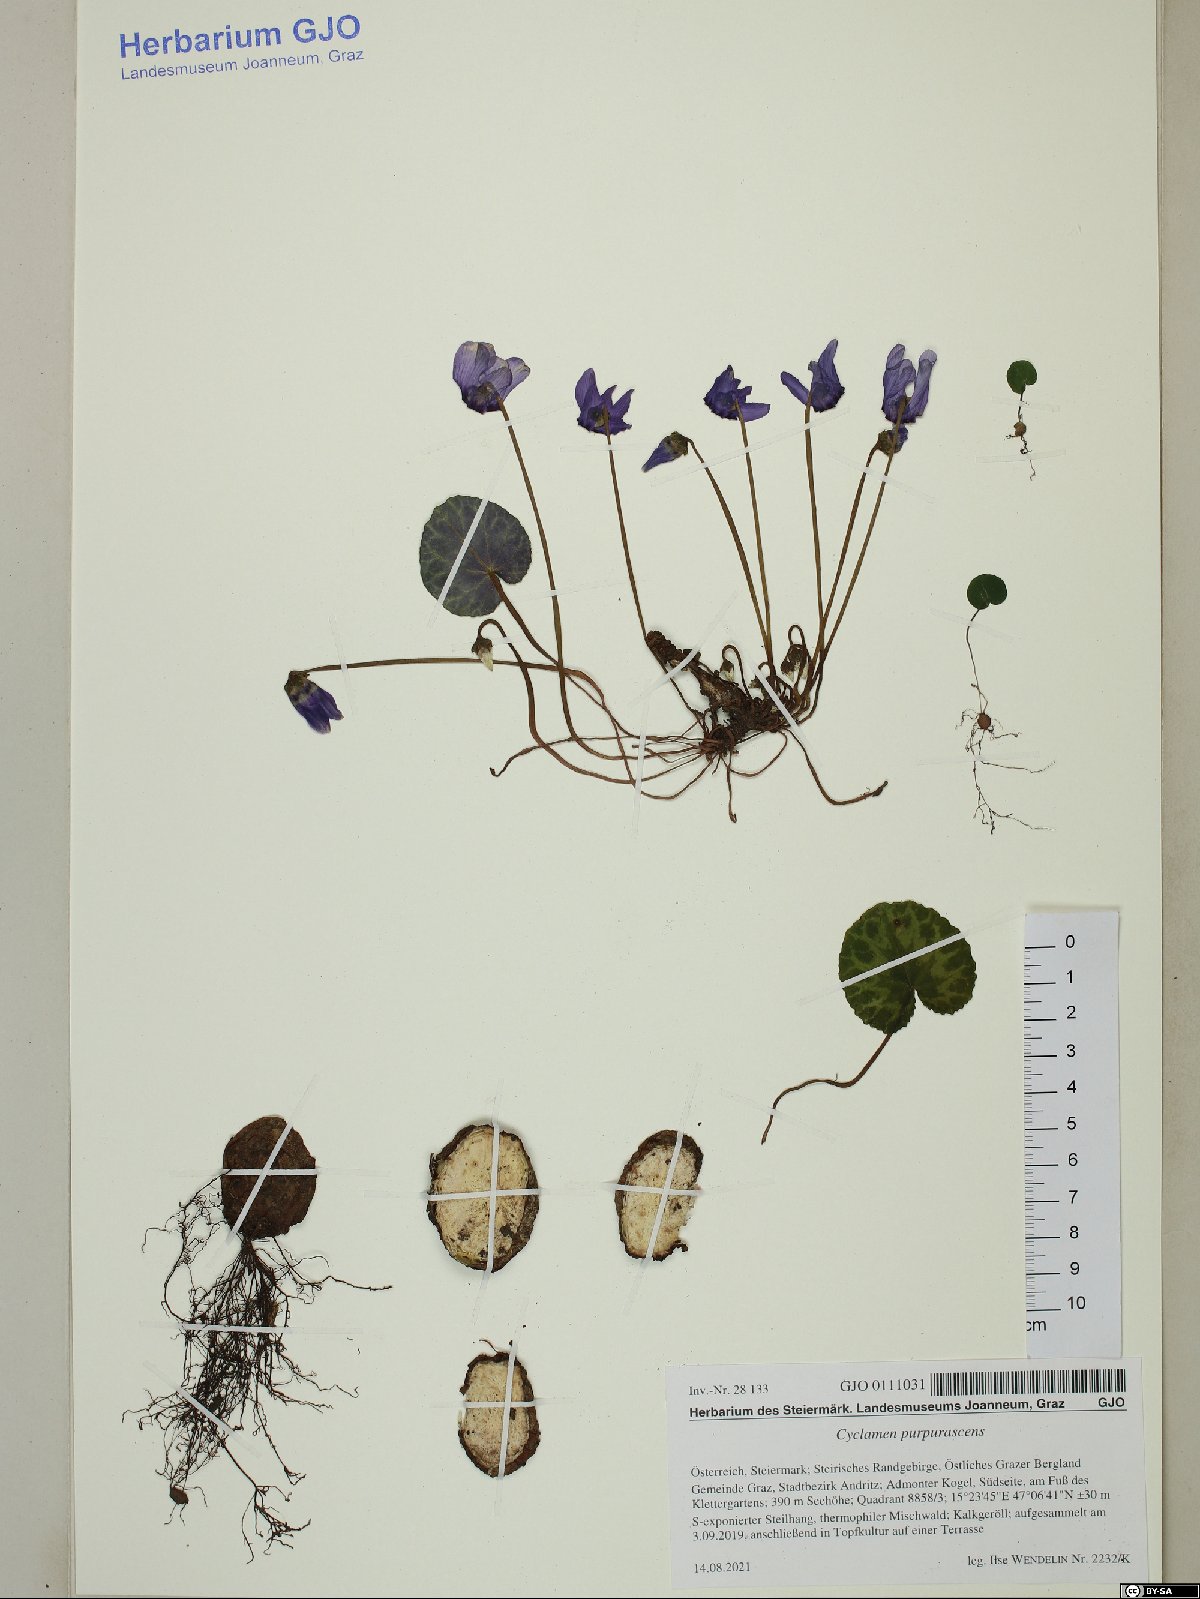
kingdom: Plantae
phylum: Tracheophyta
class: Magnoliopsida
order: Ericales
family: Primulaceae
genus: Cyclamen
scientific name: Cyclamen purpurascens
